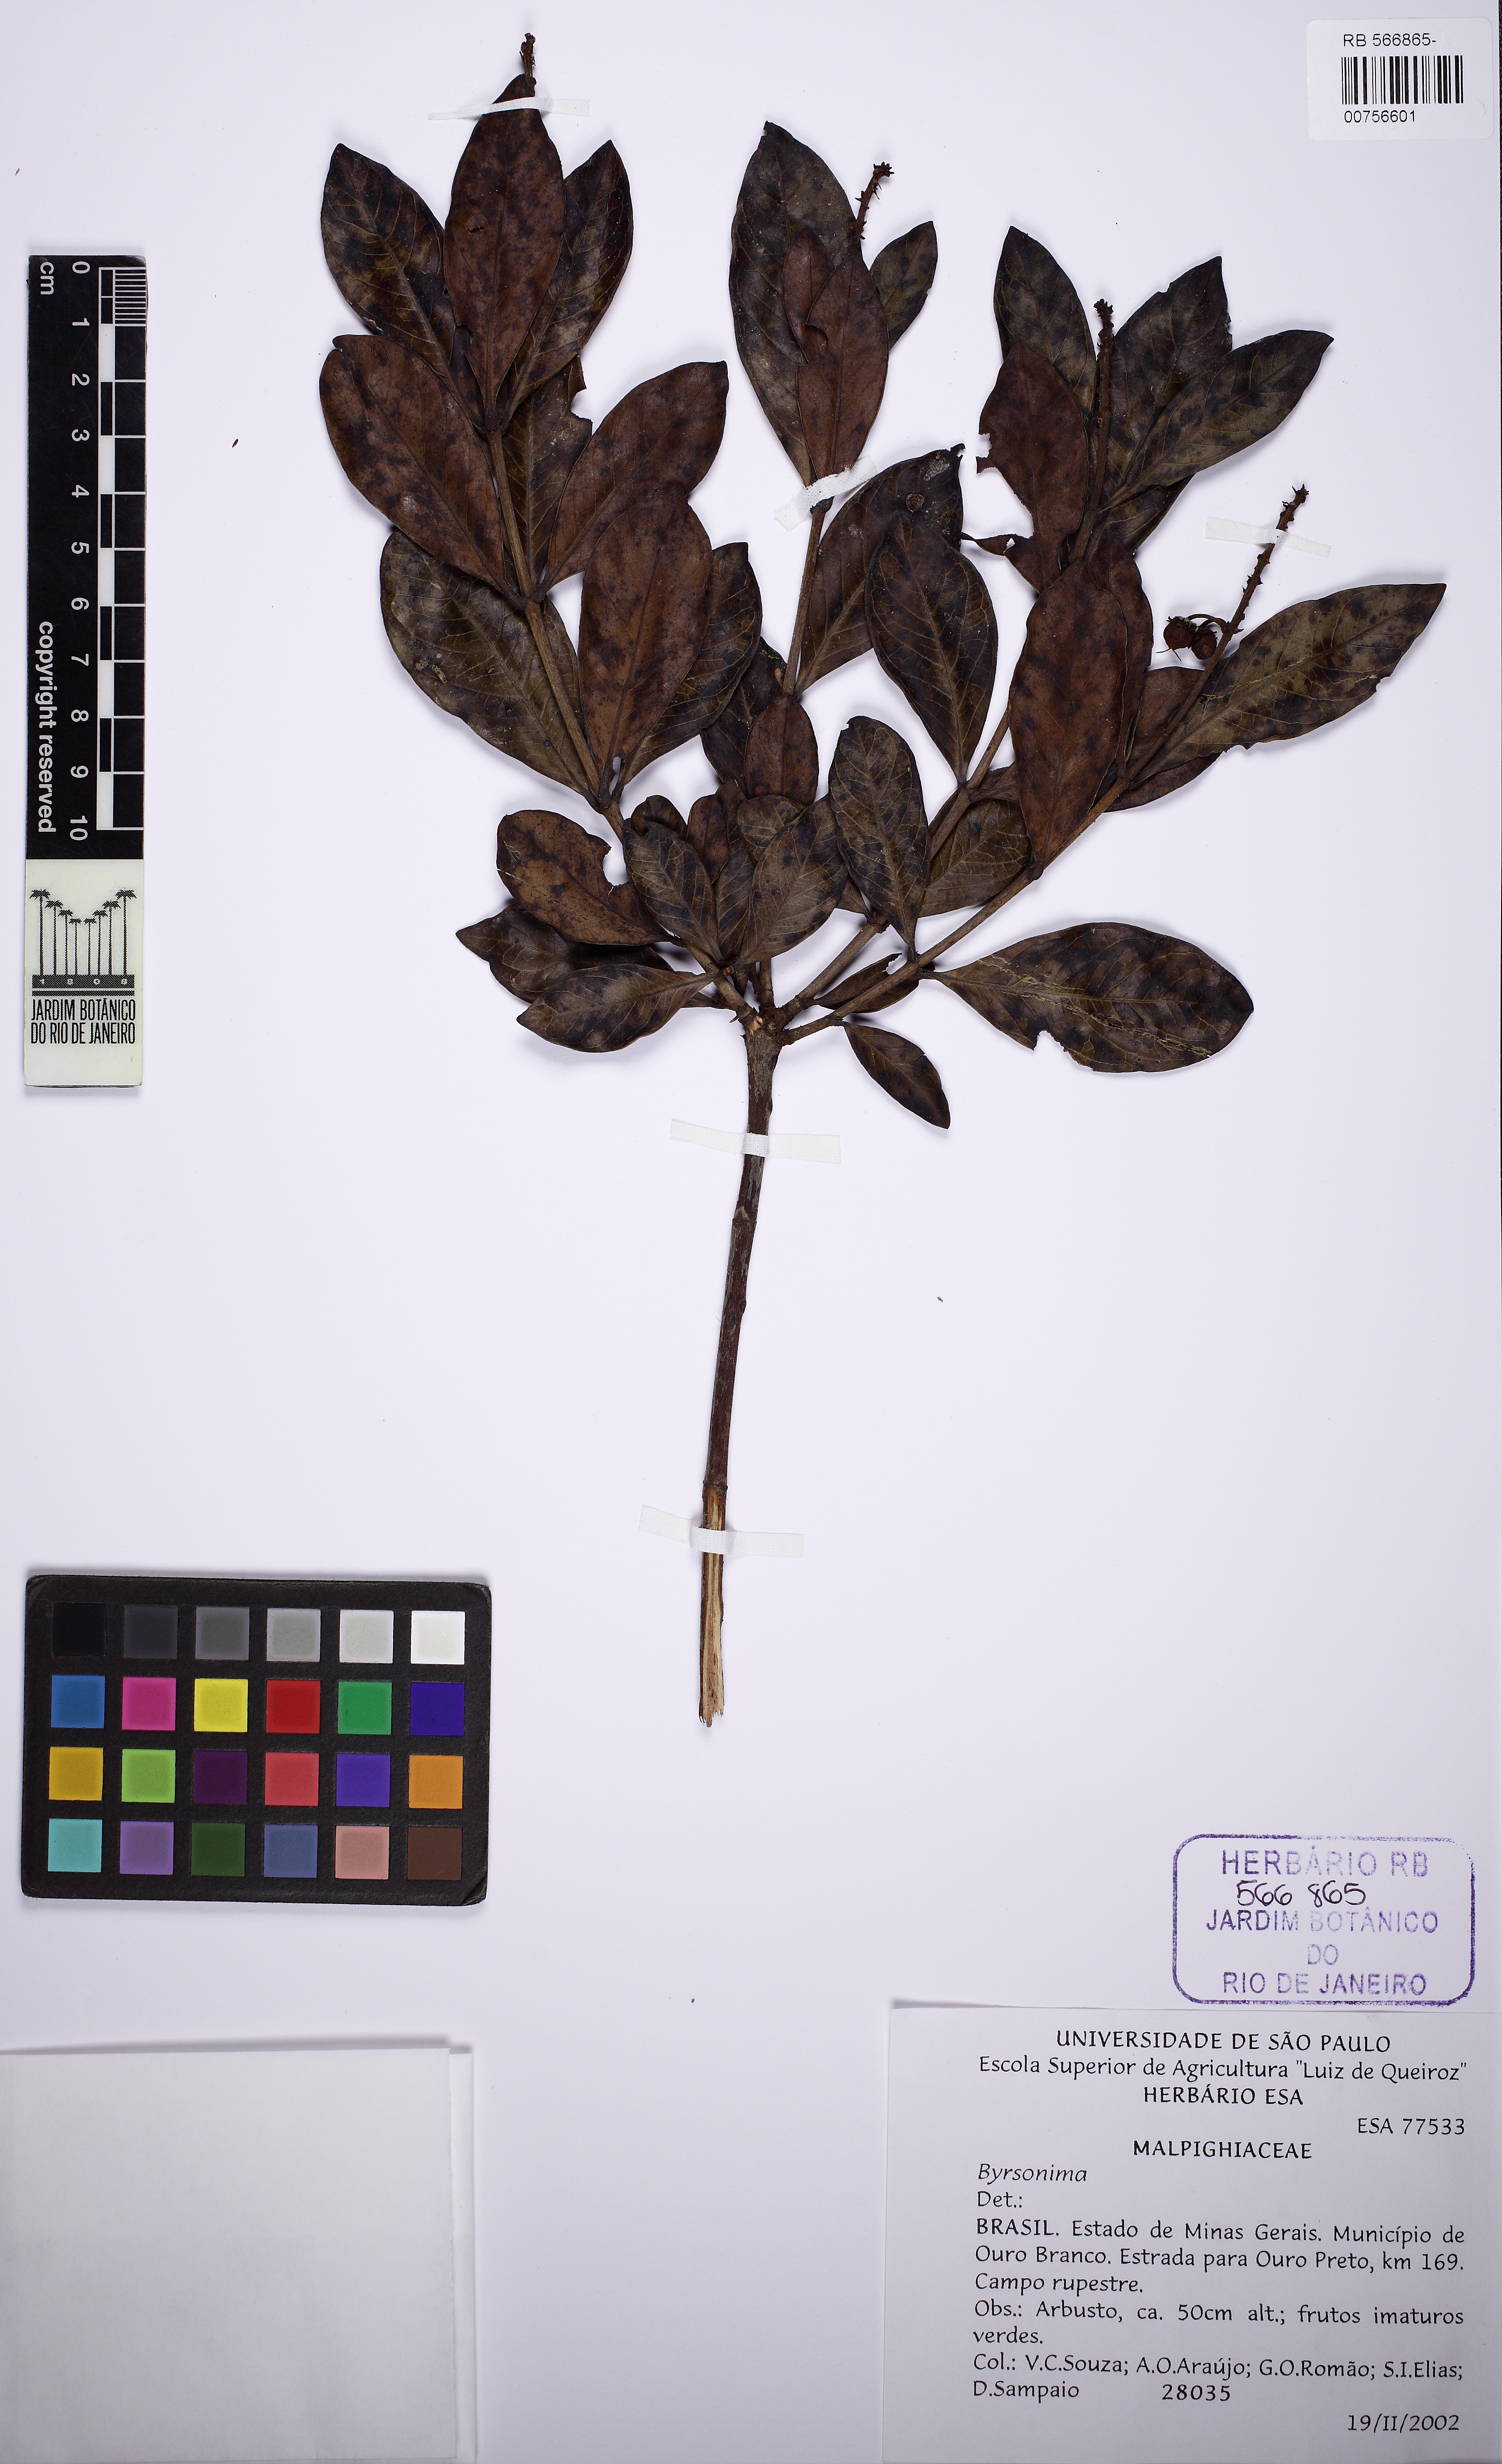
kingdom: Plantae
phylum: Tracheophyta
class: Magnoliopsida
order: Malpighiales
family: Malpighiaceae
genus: Byrsonima
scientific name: Byrsonima
